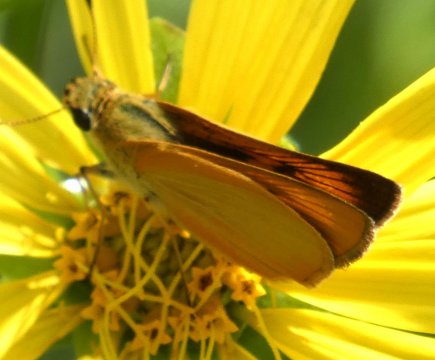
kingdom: Animalia
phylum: Arthropoda
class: Insecta
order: Lepidoptera
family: Hesperiidae
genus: Atrytone
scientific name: Atrytone delaware
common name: Delaware Skipper
